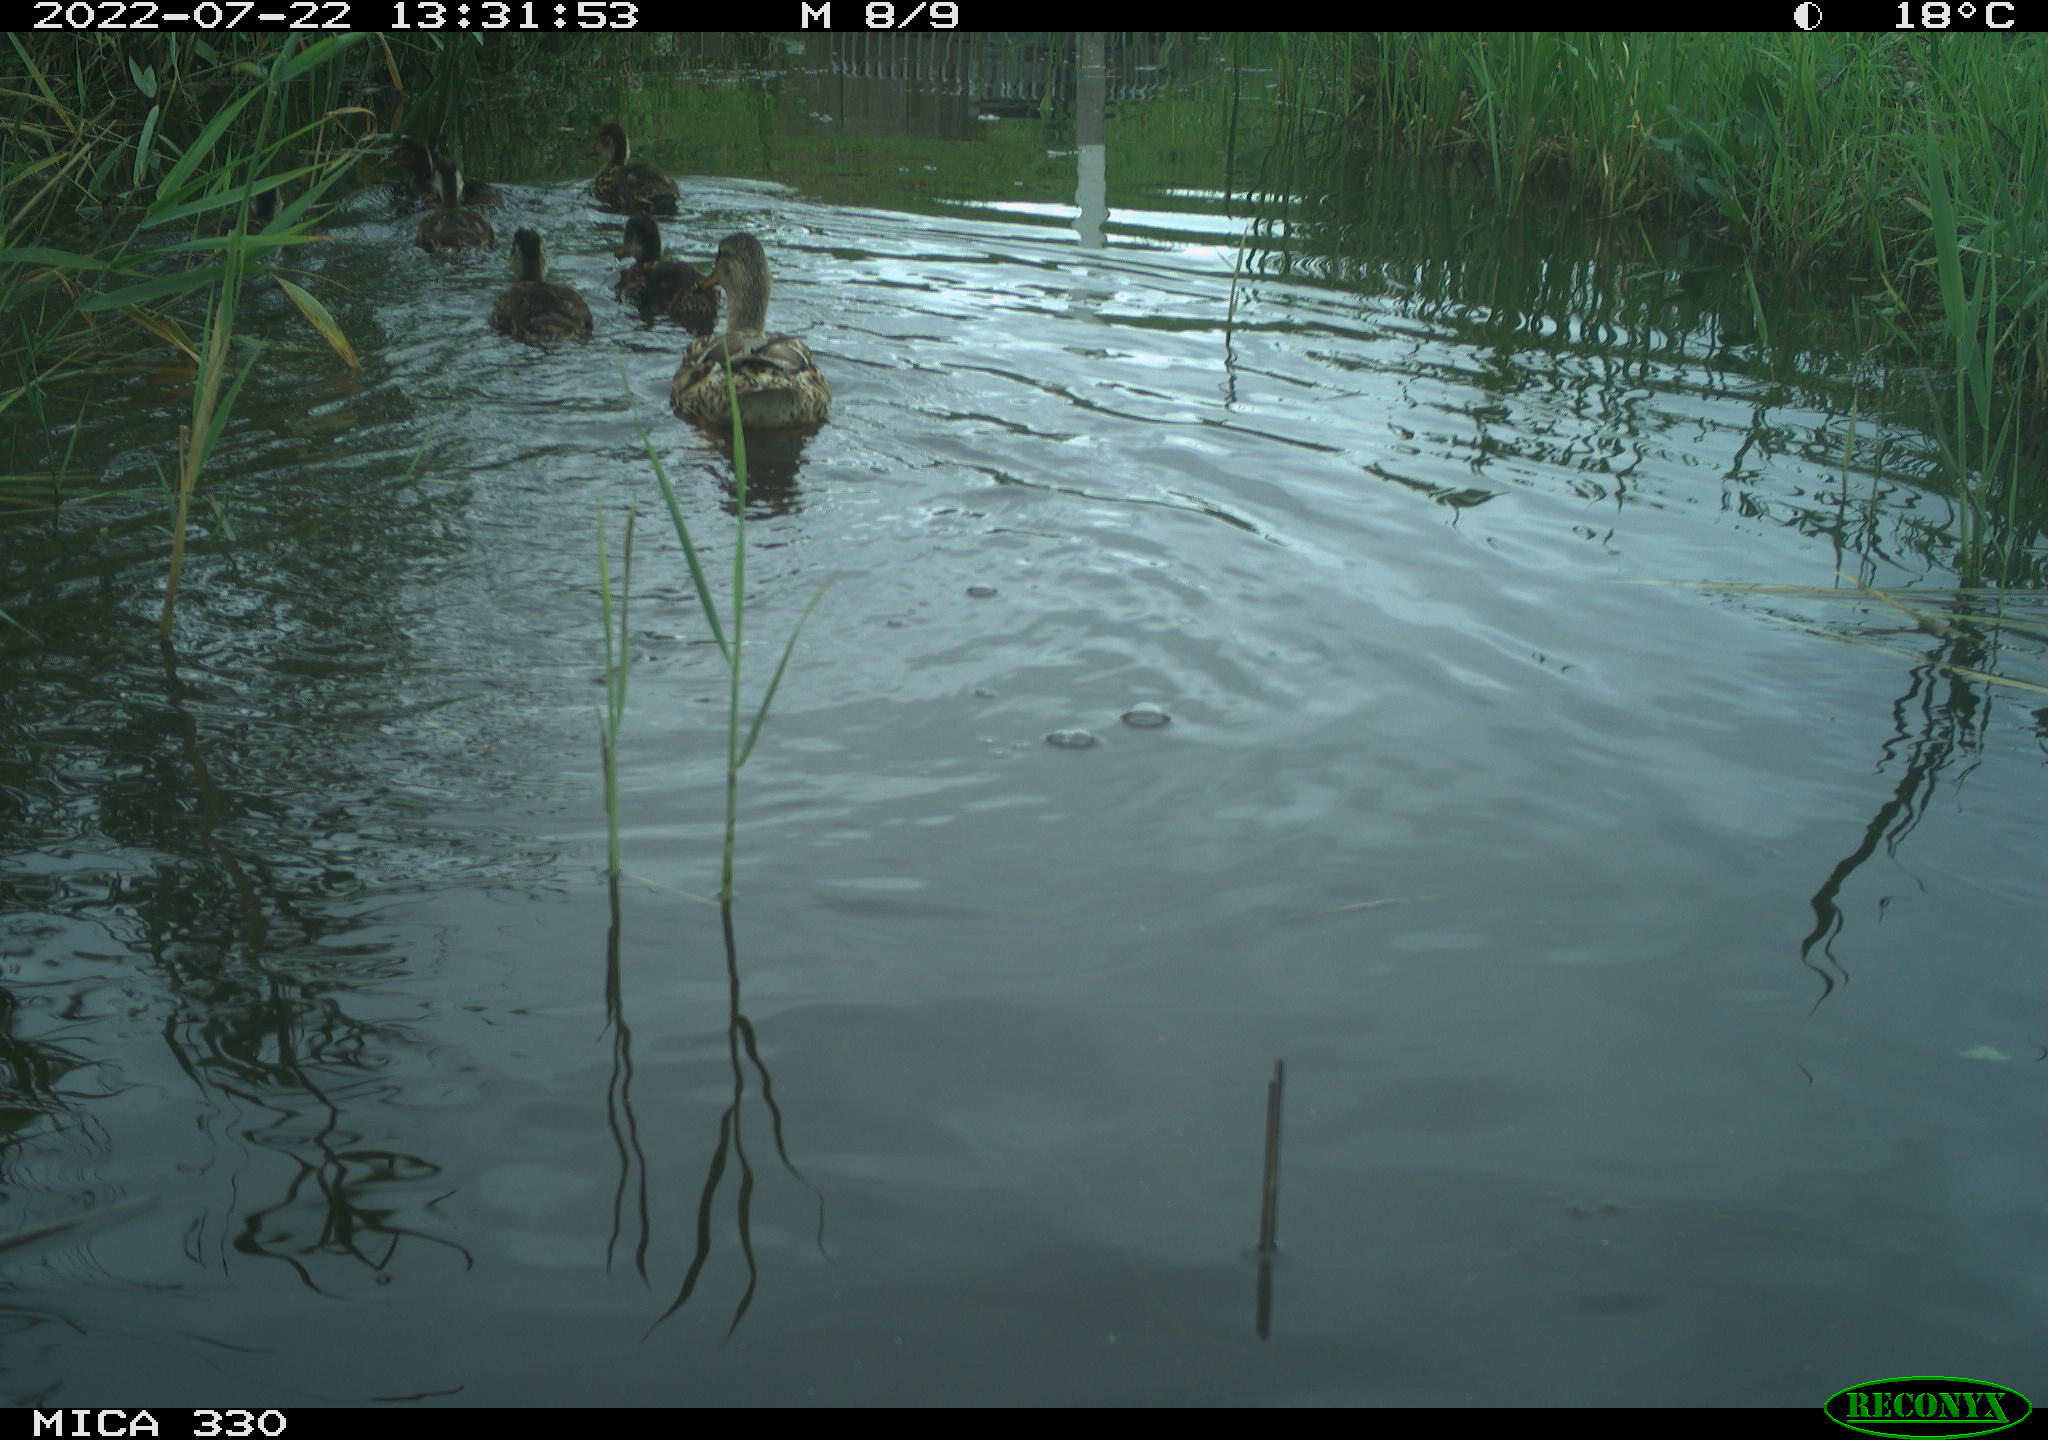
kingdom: Animalia
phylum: Chordata
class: Aves
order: Anseriformes
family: Anatidae
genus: Mareca
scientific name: Mareca strepera
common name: Gadwall
